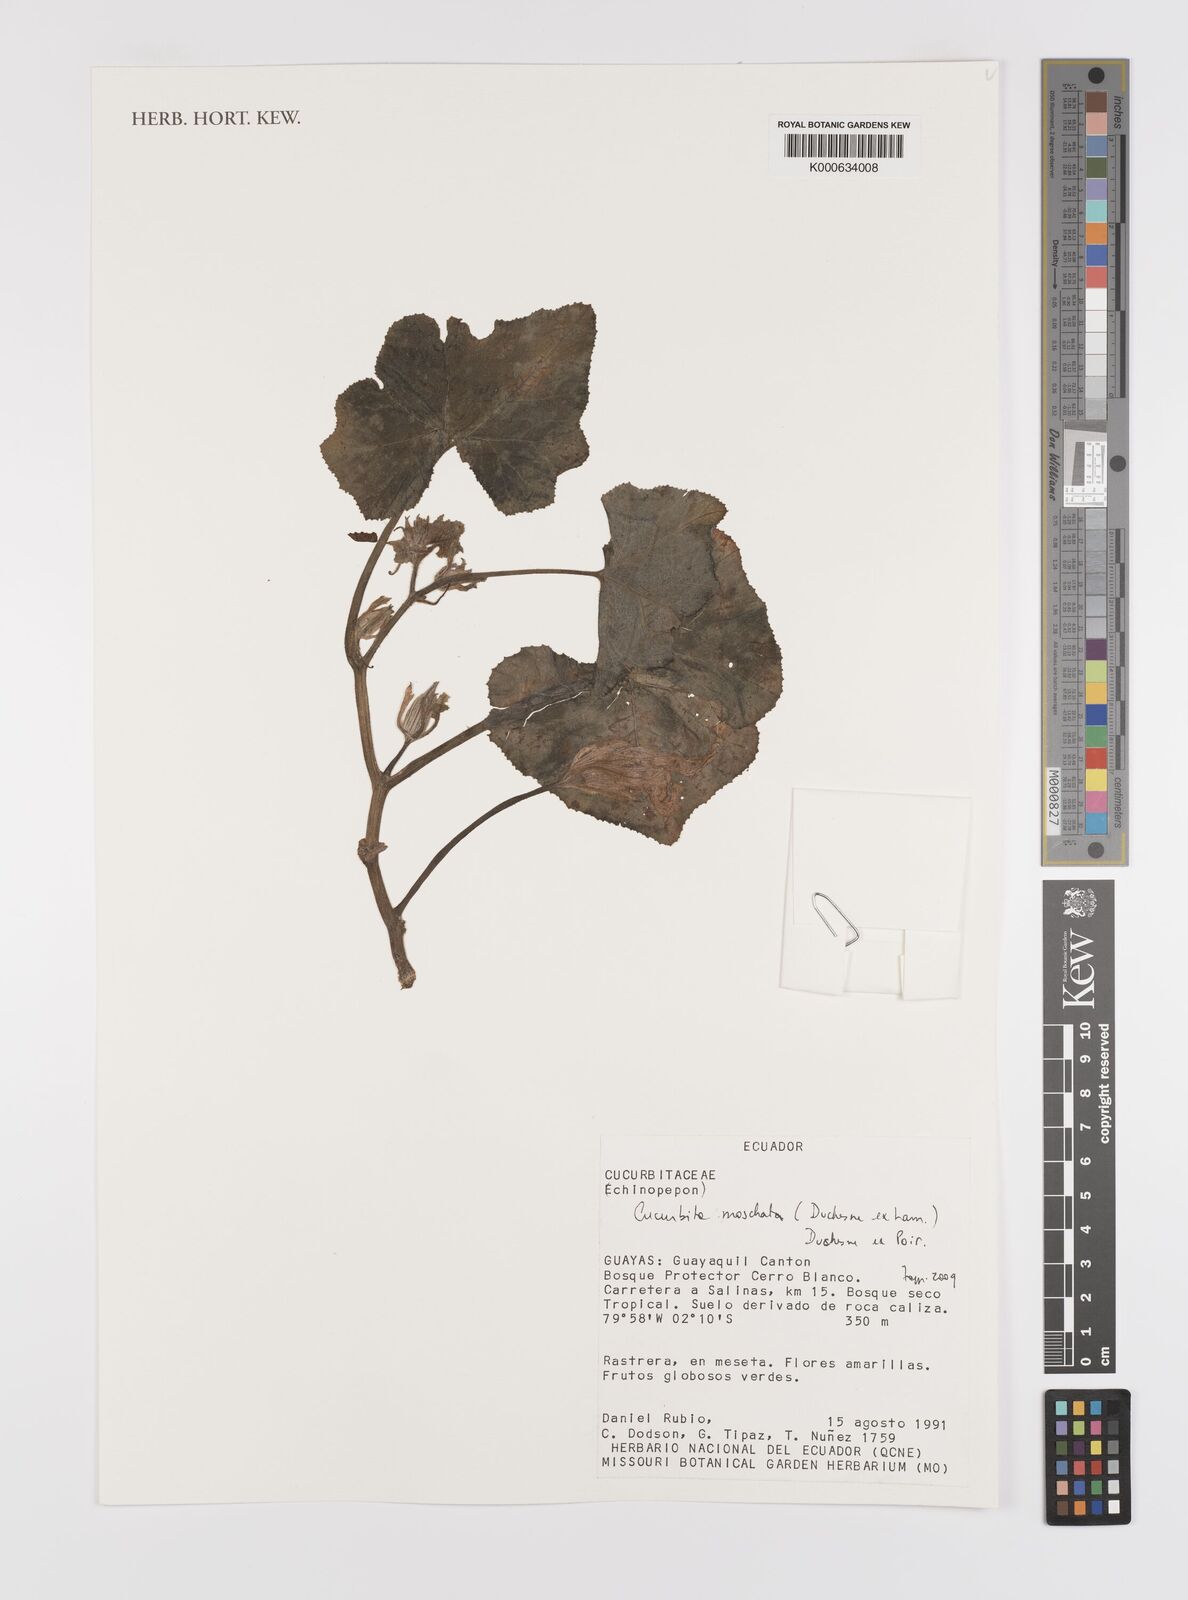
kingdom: Plantae
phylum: Tracheophyta
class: Magnoliopsida
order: Cucurbitales
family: Cucurbitaceae
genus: Cucurbita
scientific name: Cucurbita
